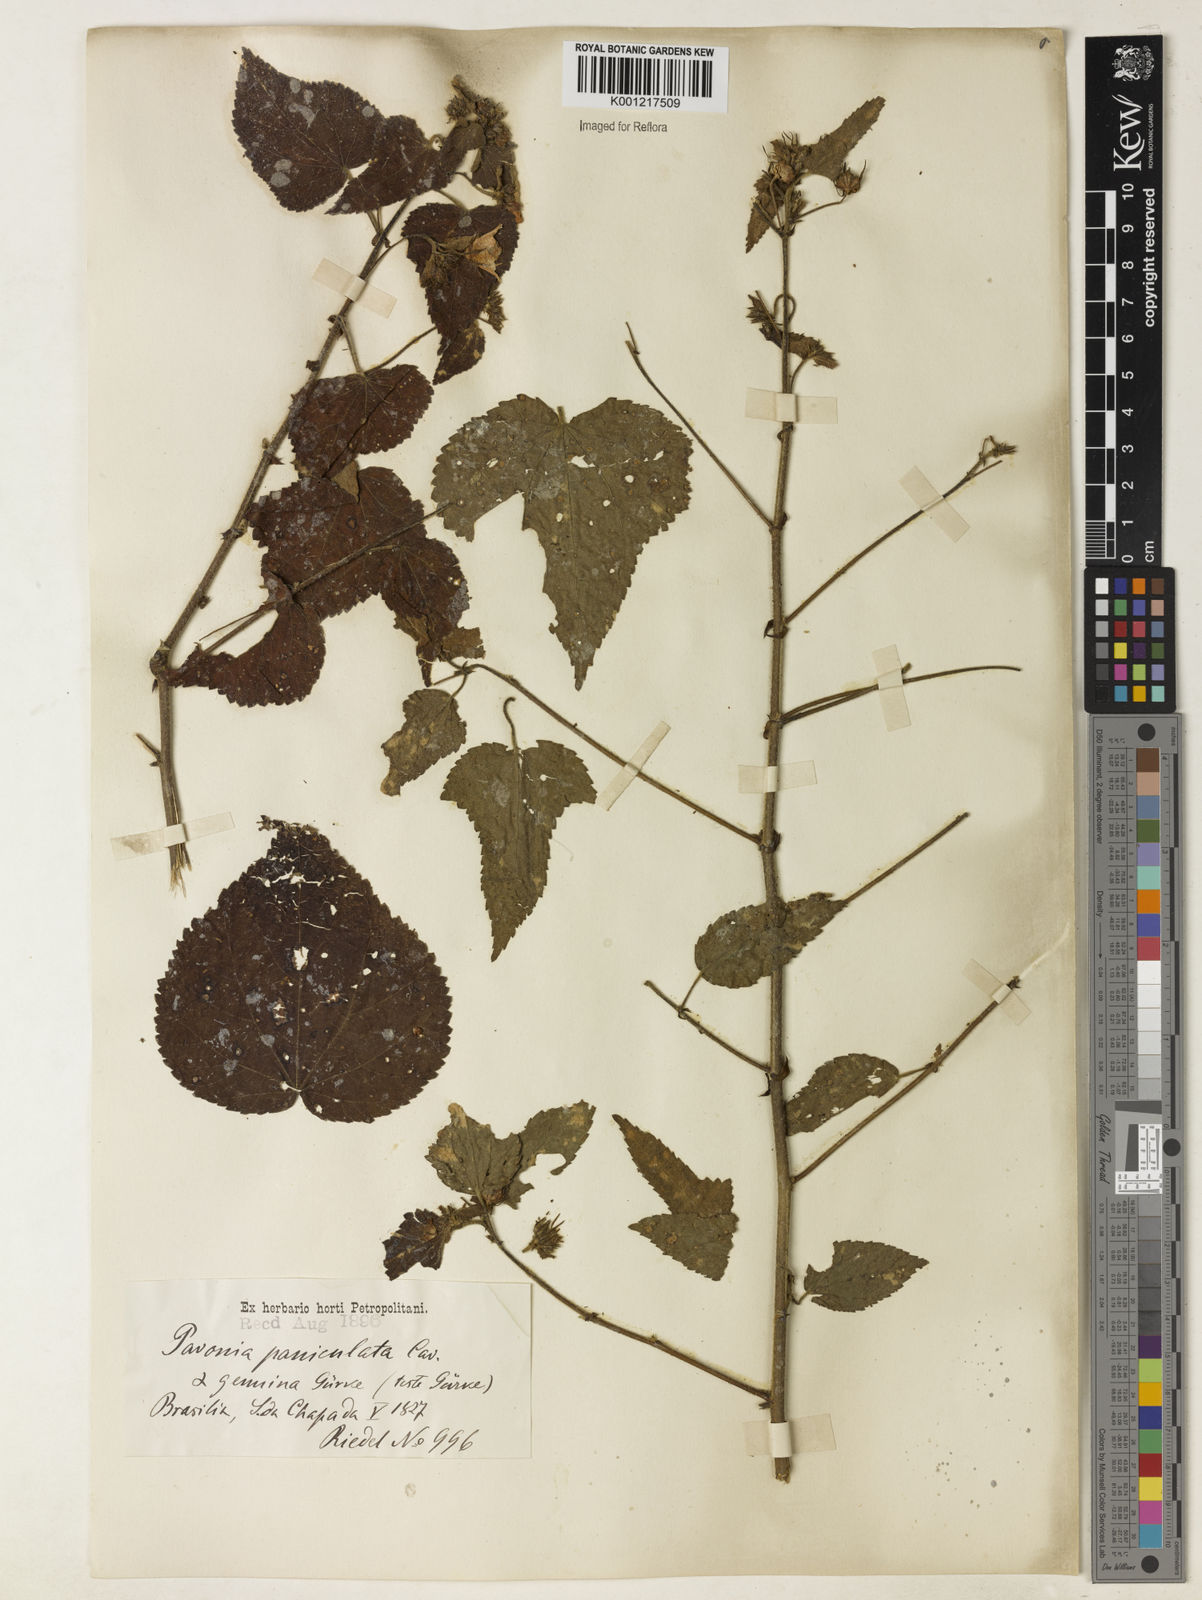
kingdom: Plantae
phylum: Tracheophyta
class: Magnoliopsida
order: Malvales
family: Malvaceae
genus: Pavonia
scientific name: Pavonia paniculata
